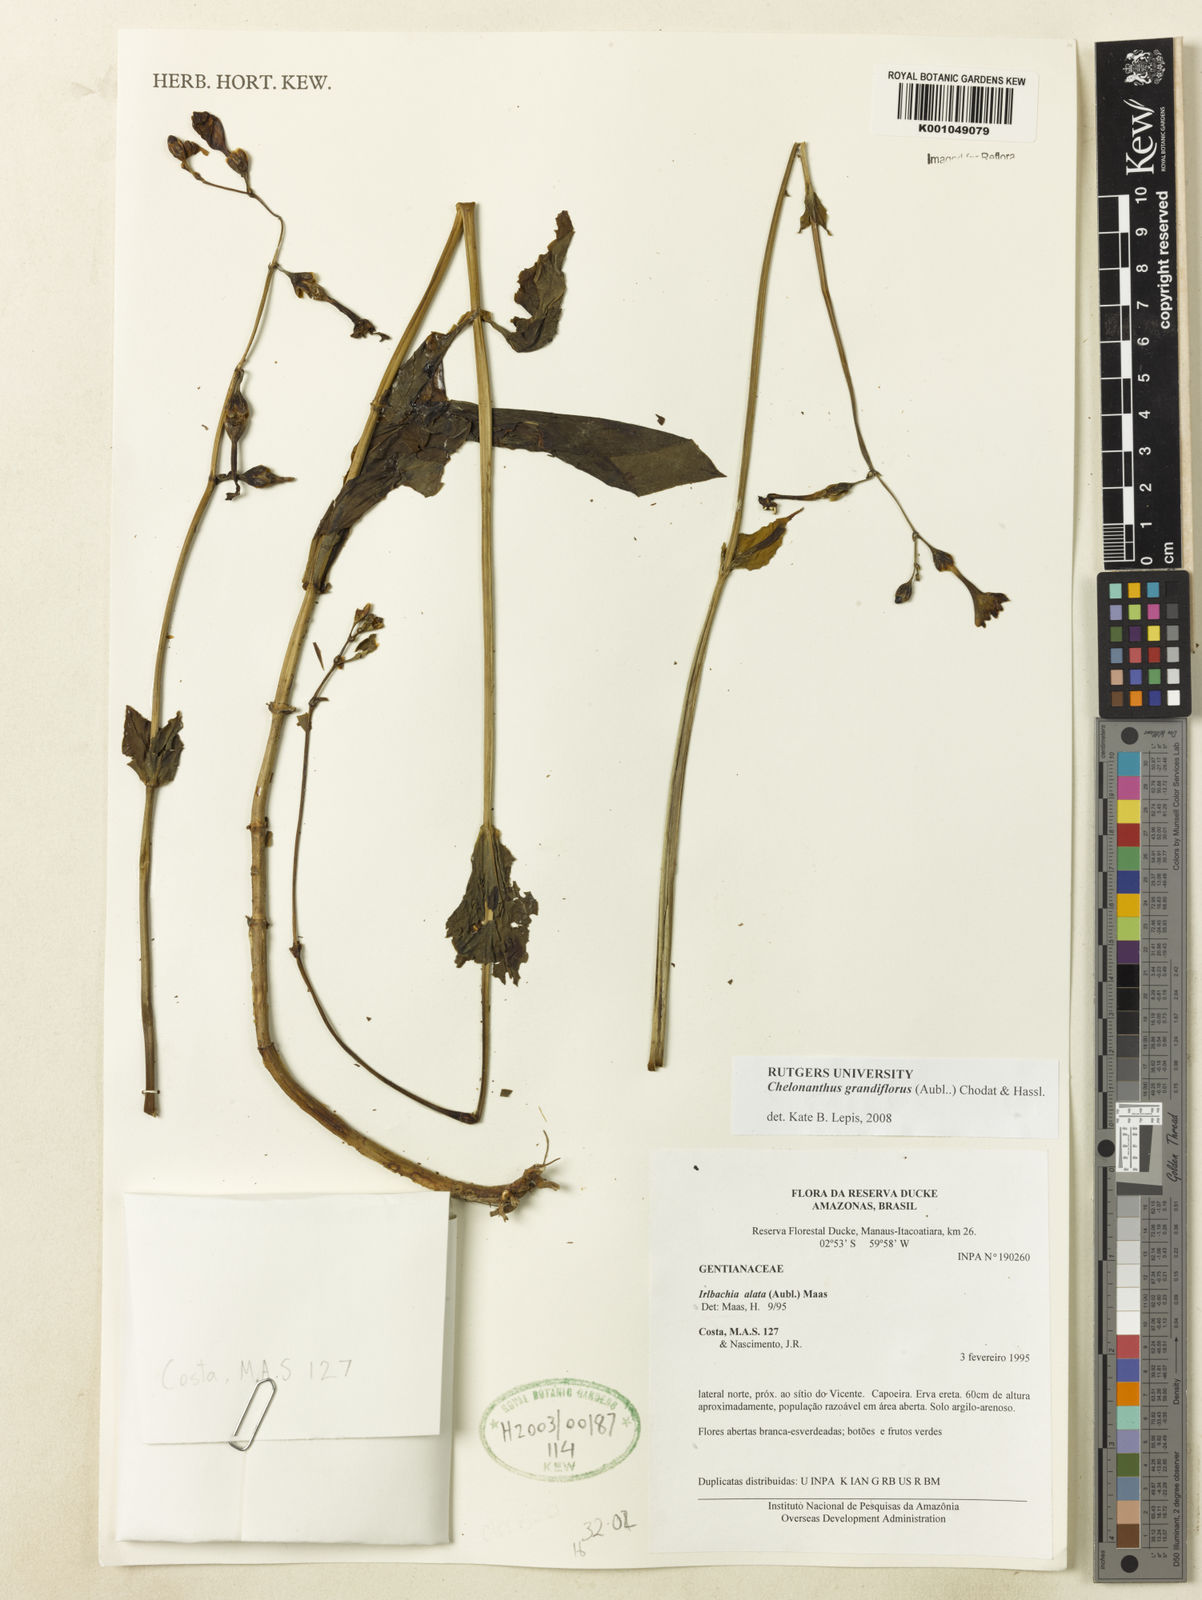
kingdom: Plantae
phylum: Tracheophyta
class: Magnoliopsida
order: Gentianales
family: Gentianaceae
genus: Chelonanthus
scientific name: Chelonanthus grandiflorus
